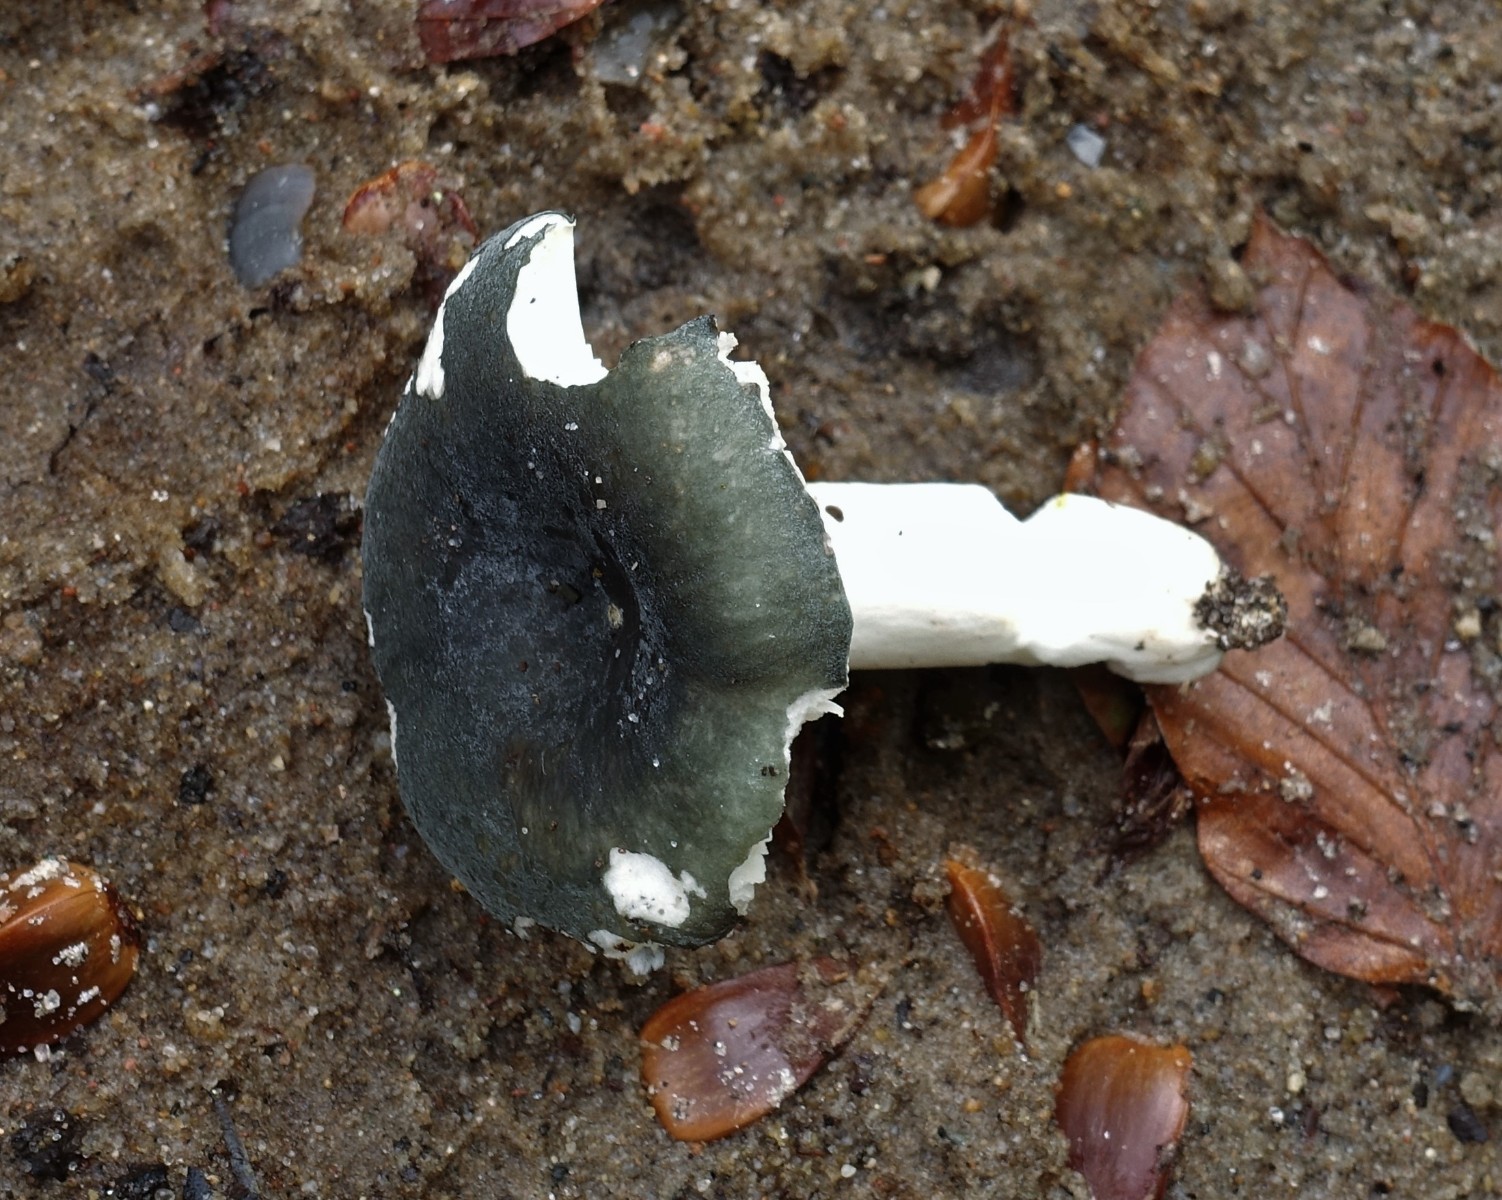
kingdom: Fungi
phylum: Basidiomycota
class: Agaricomycetes
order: Russulales
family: Russulaceae
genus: Russula
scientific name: Russula parazurea
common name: blågrå skørhat
